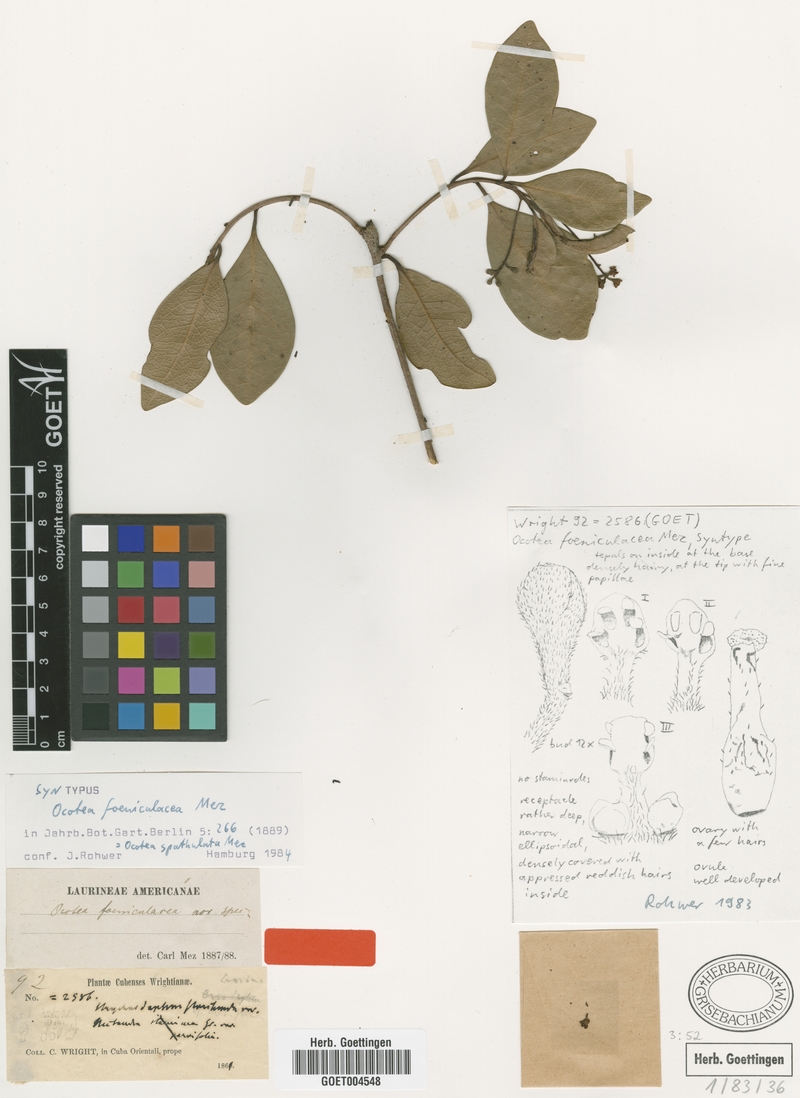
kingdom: Plantae
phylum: Tracheophyta
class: Magnoliopsida
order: Laurales
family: Lauraceae
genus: Ocotea
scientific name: Ocotea spathulata
